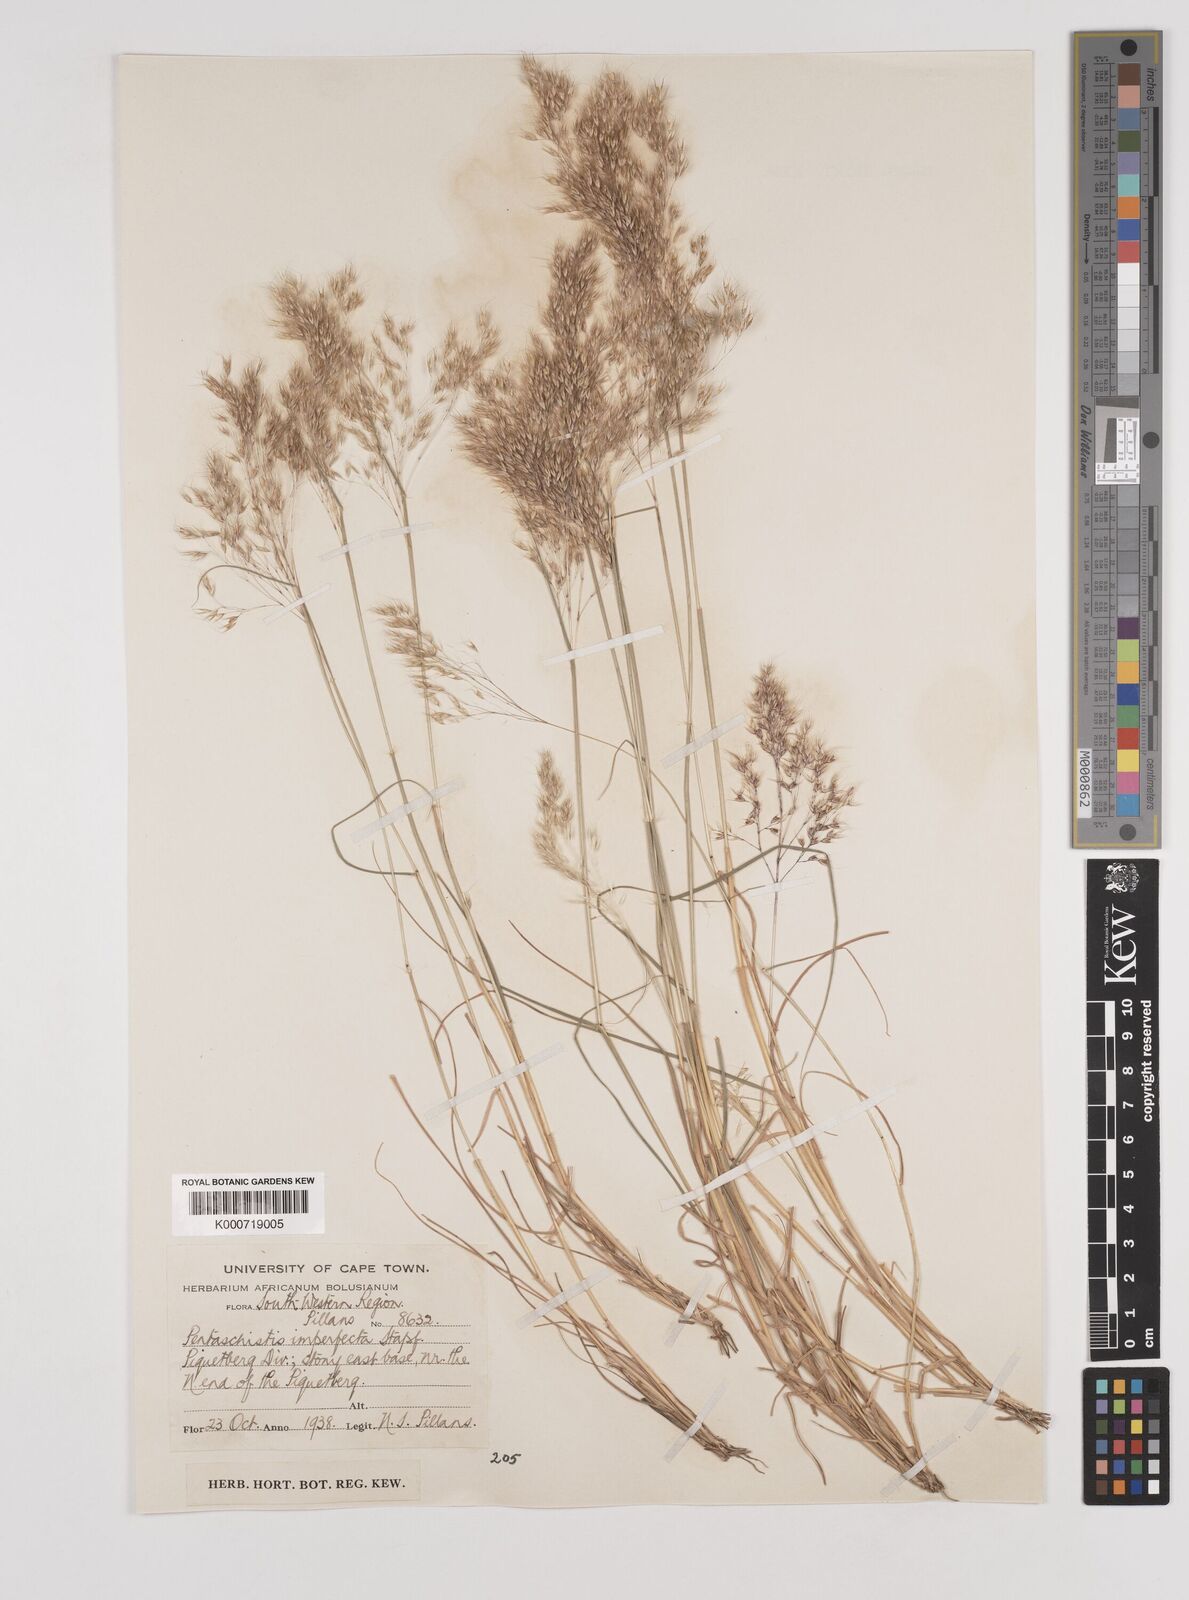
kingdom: Plantae
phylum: Tracheophyta
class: Liliopsida
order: Poales
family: Poaceae
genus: Pentameris
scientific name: Pentameris pallida
